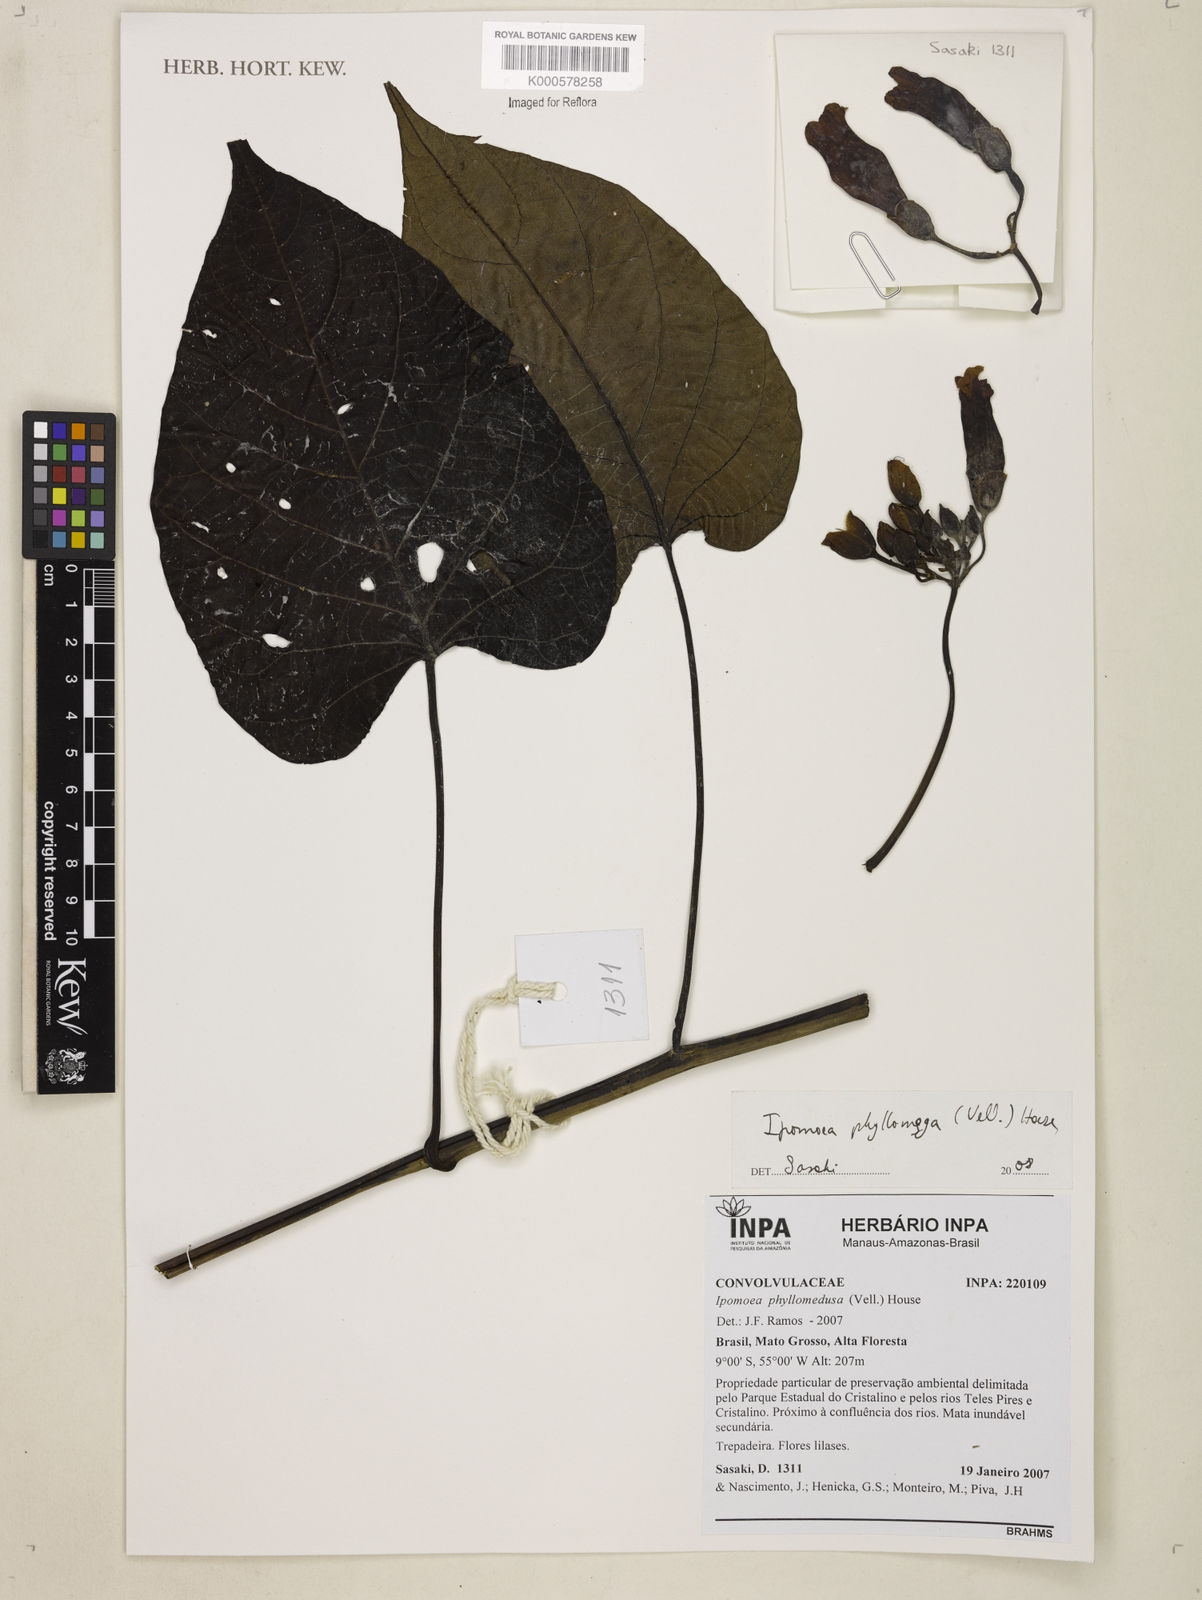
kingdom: Plantae
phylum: Tracheophyta
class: Magnoliopsida
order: Solanales
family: Convolvulaceae
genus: Ipomoea
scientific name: Ipomoea philomega
